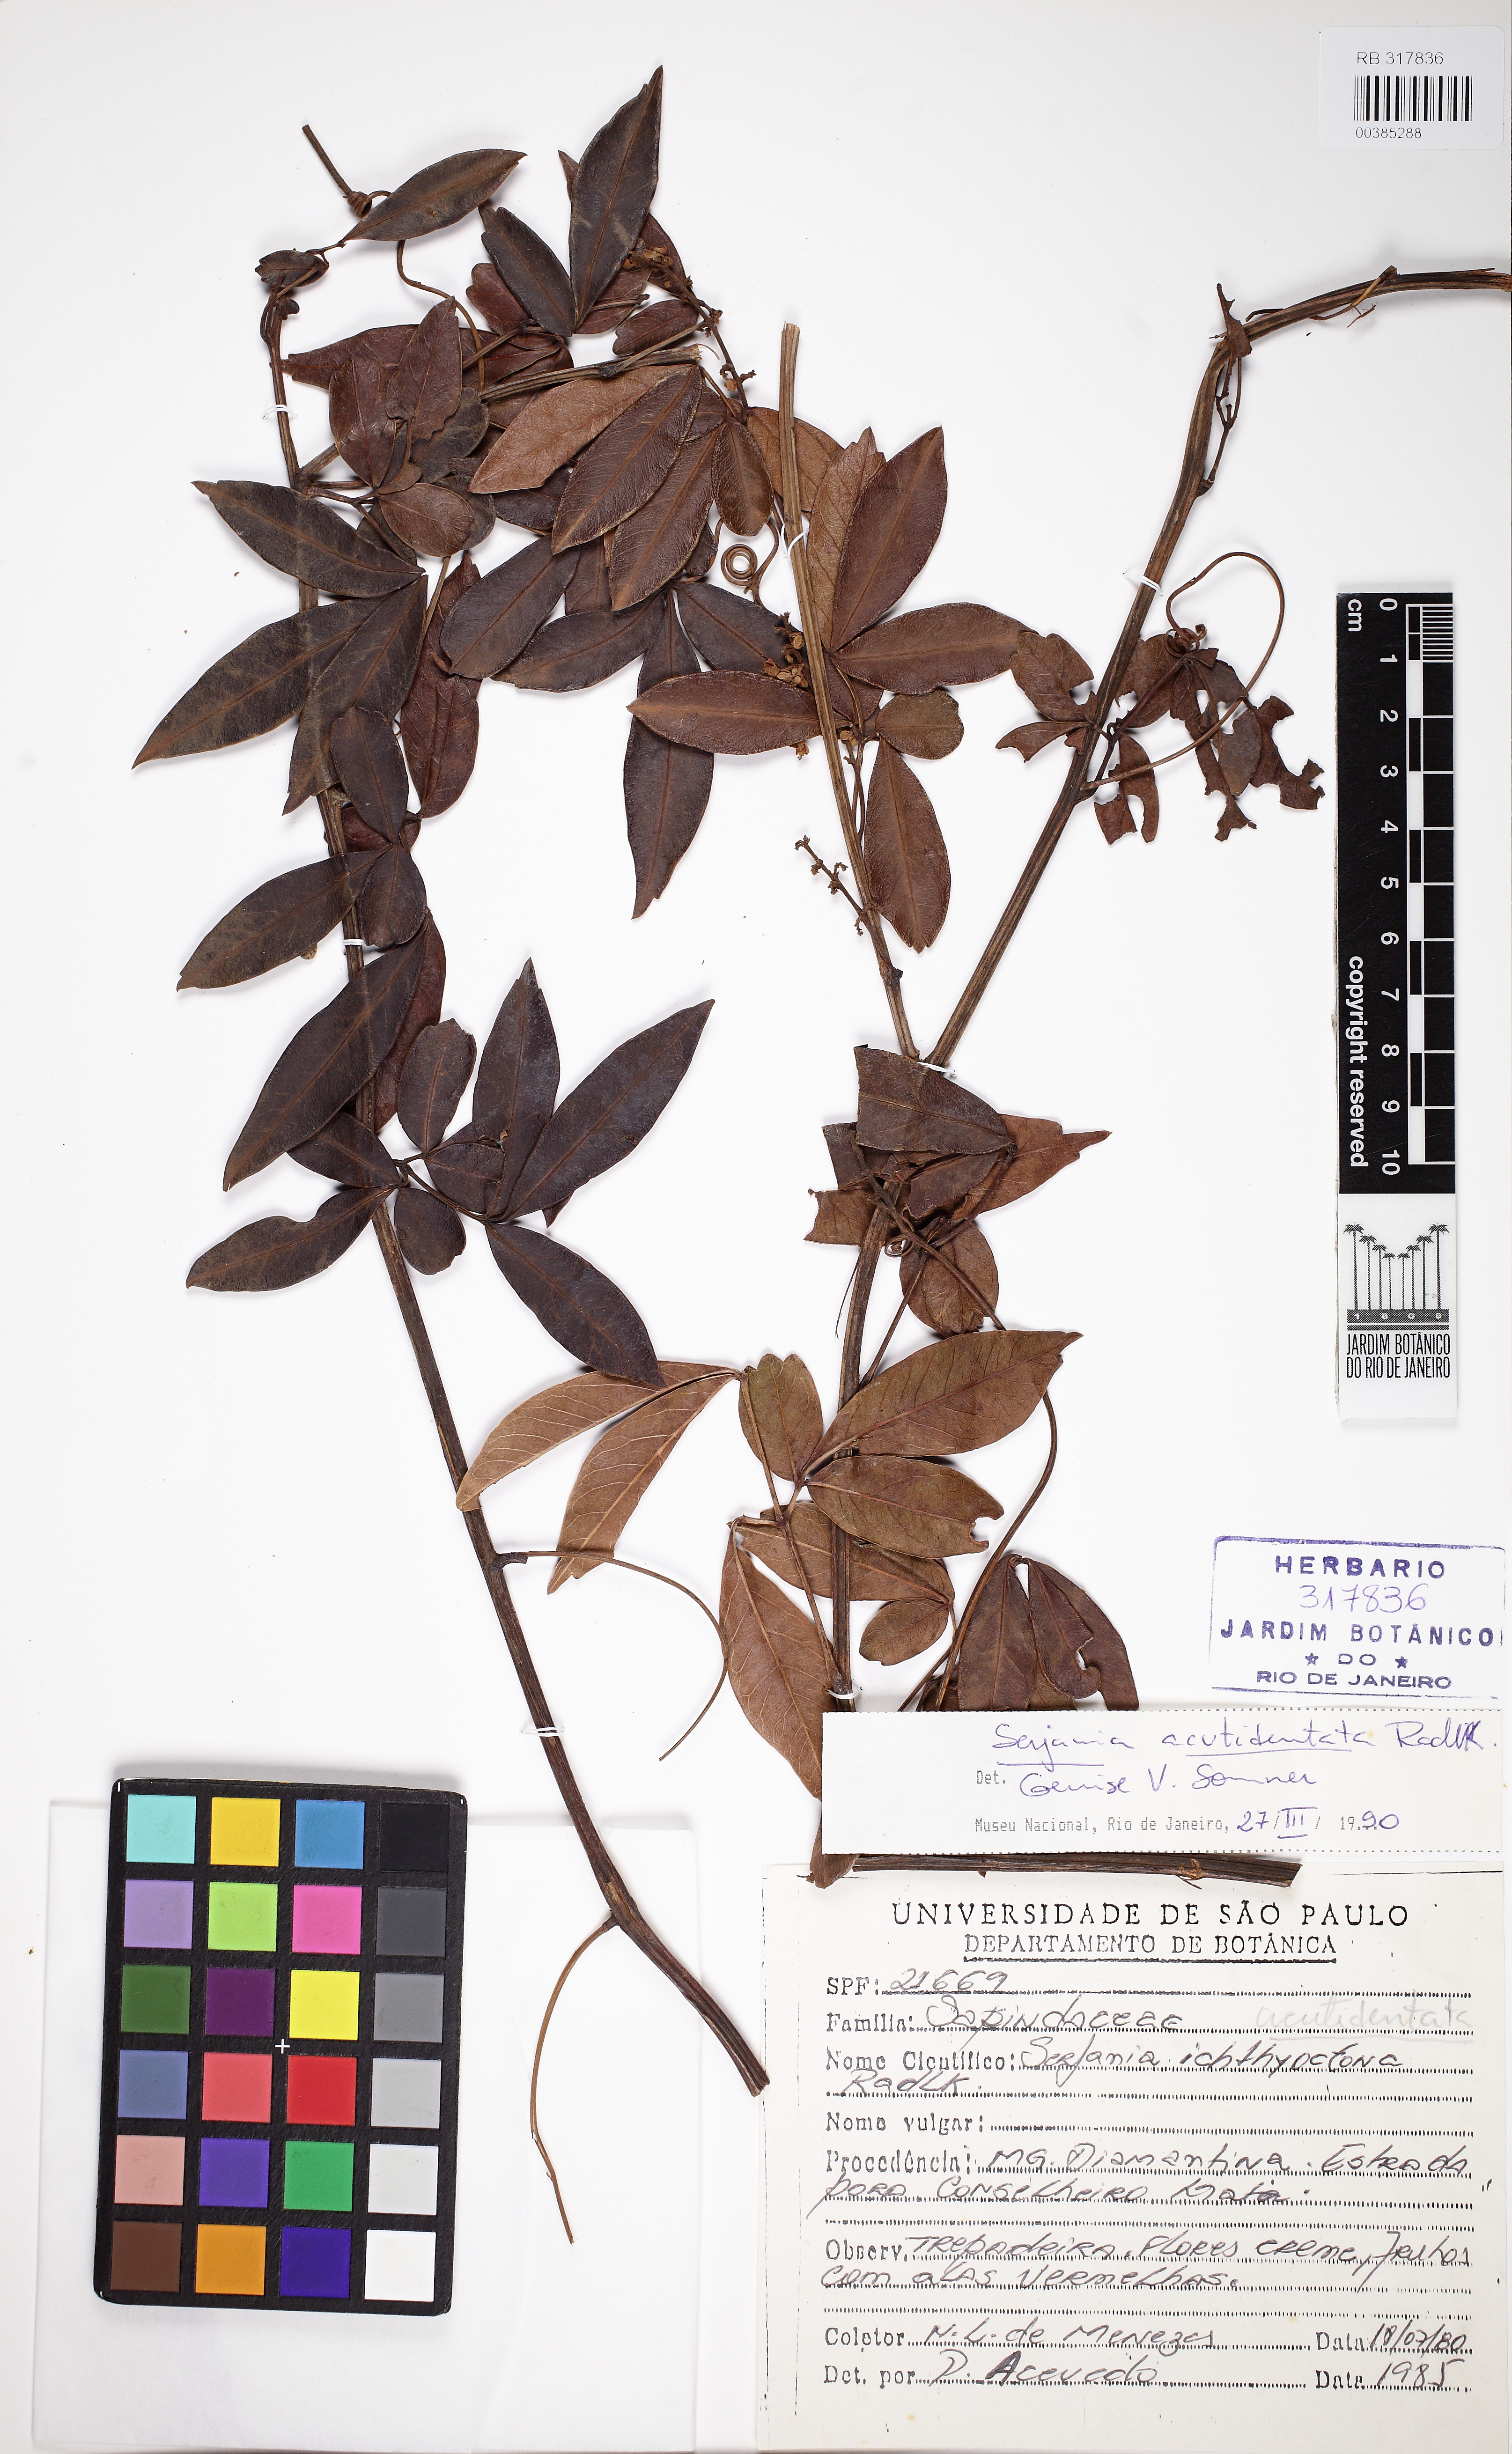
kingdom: Plantae
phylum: Tracheophyta
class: Magnoliopsida
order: Sapindales
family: Sapindaceae
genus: Serjania
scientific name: Serjania acutidentata
